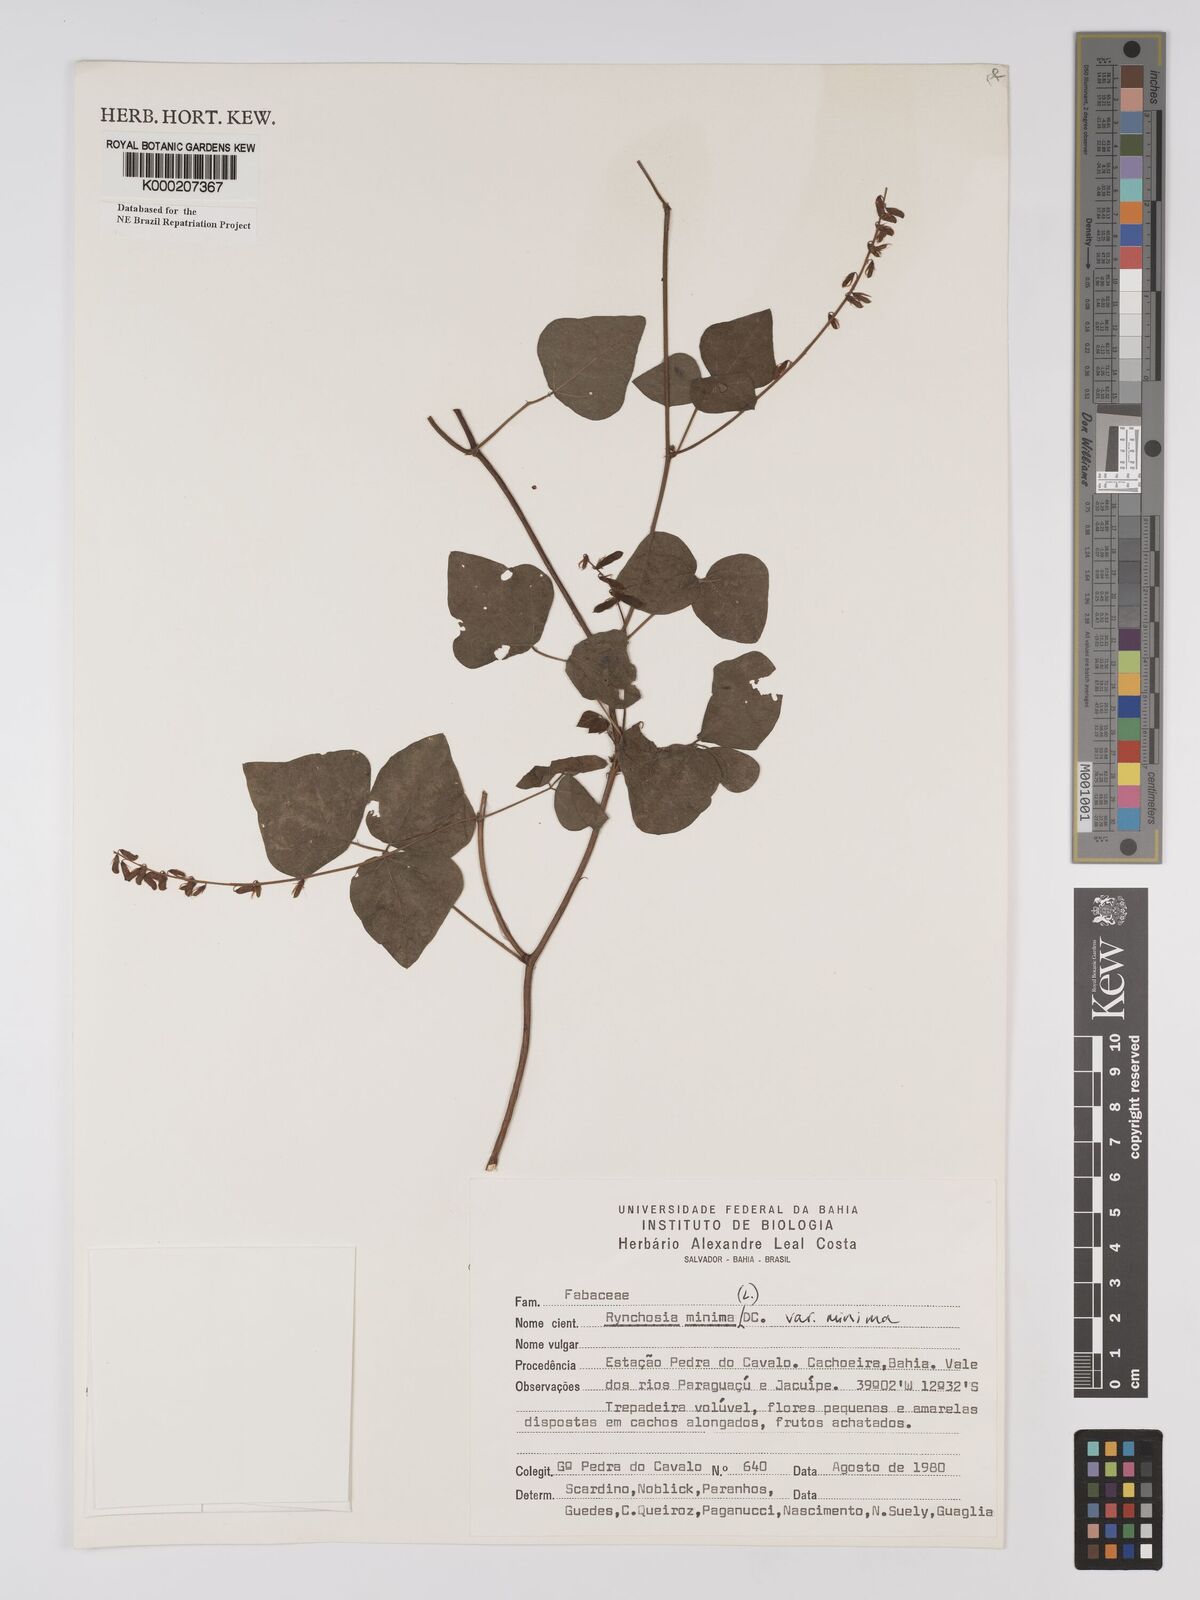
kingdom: Plantae
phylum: Tracheophyta
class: Magnoliopsida
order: Fabales
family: Fabaceae
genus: Rhynchosia
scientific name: Rhynchosia minima
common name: Least snoutbean
